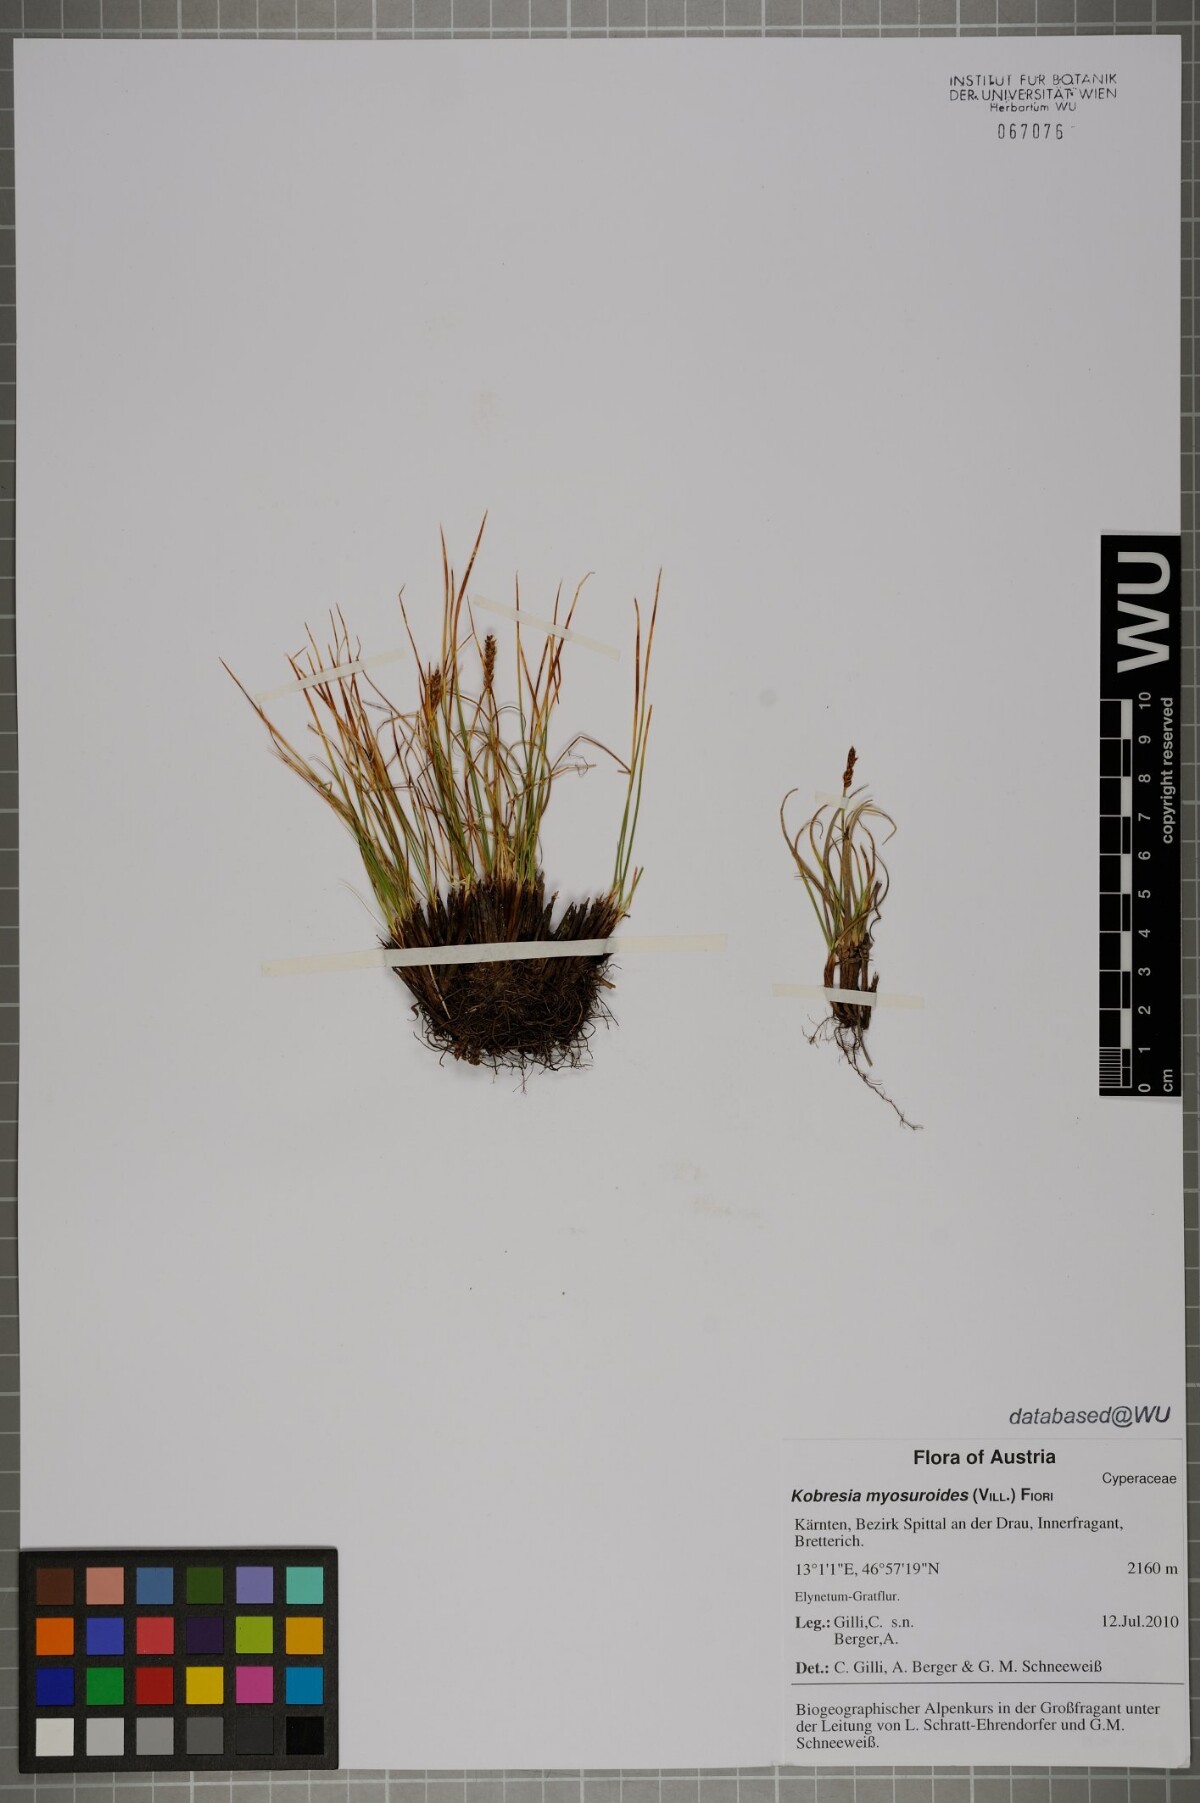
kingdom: Plantae
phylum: Tracheophyta
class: Liliopsida
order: Poales
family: Cyperaceae
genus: Carex
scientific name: Carex myosuroides
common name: Bellard's bog sedge
